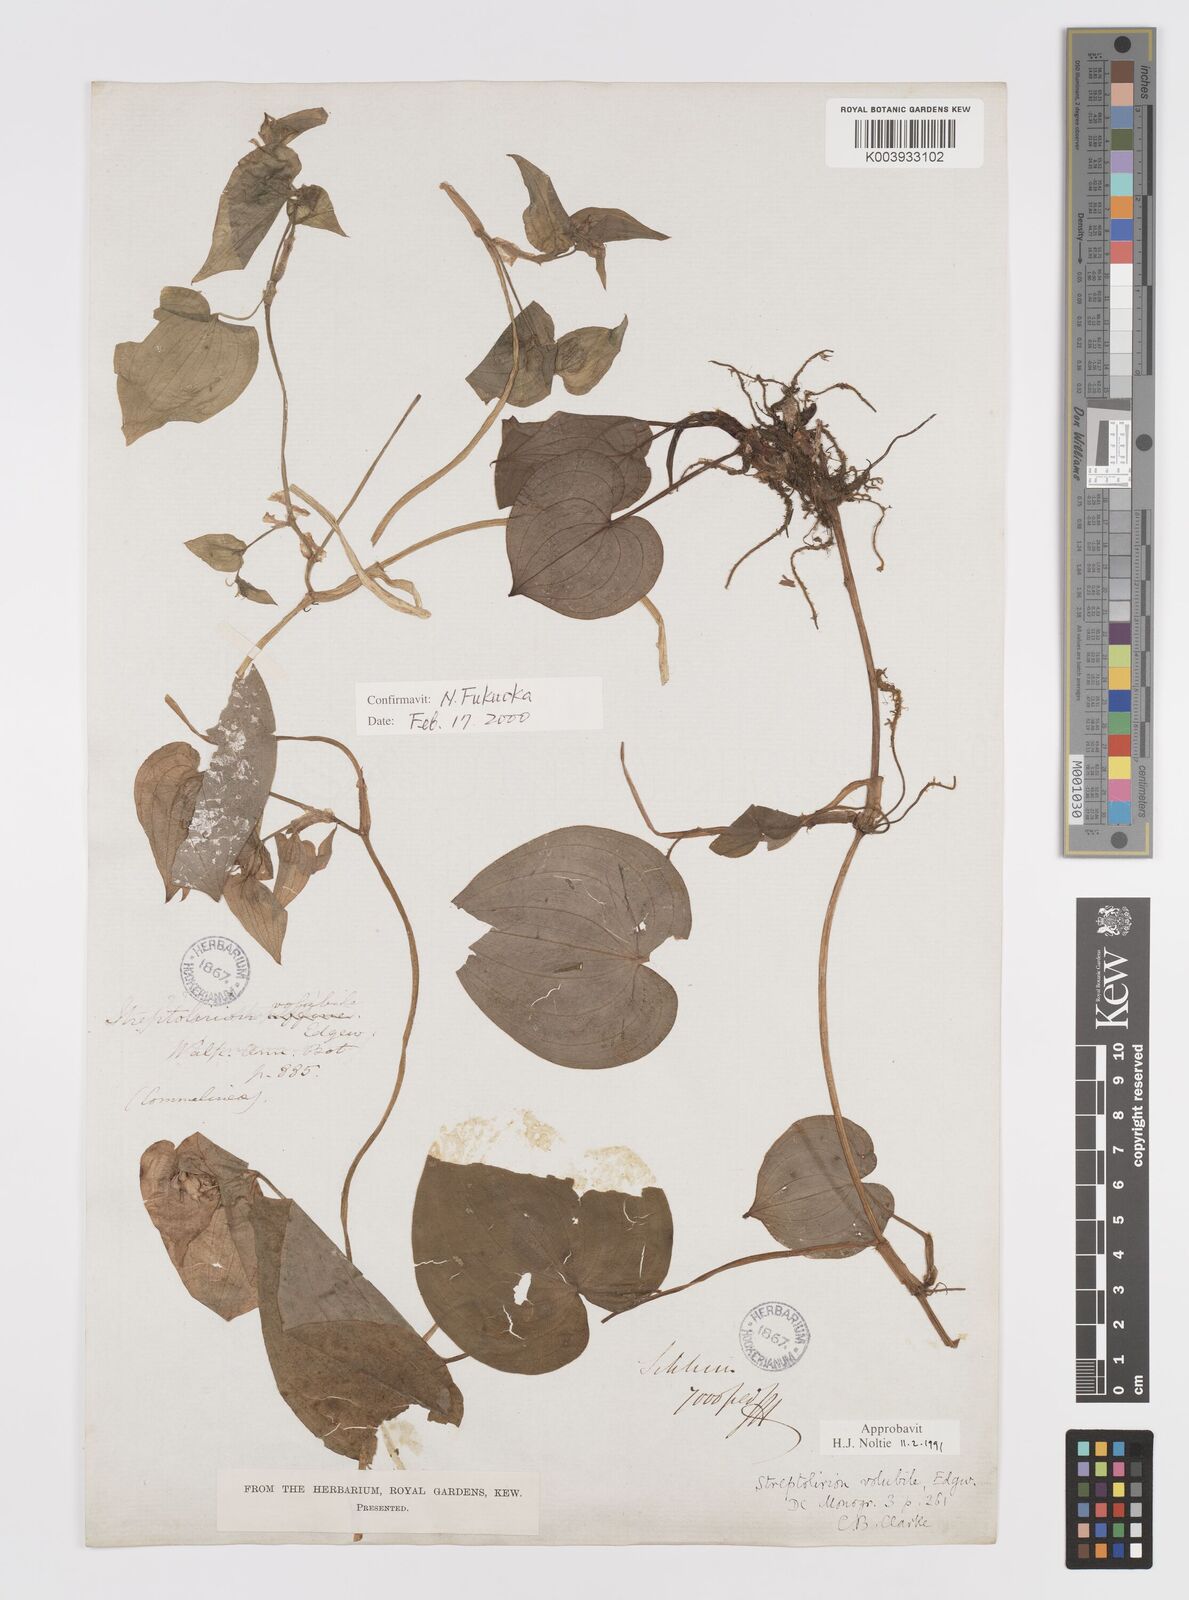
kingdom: Plantae
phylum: Tracheophyta
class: Liliopsida
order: Commelinales
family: Commelinaceae
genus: Streptolirion
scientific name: Streptolirion volubile
